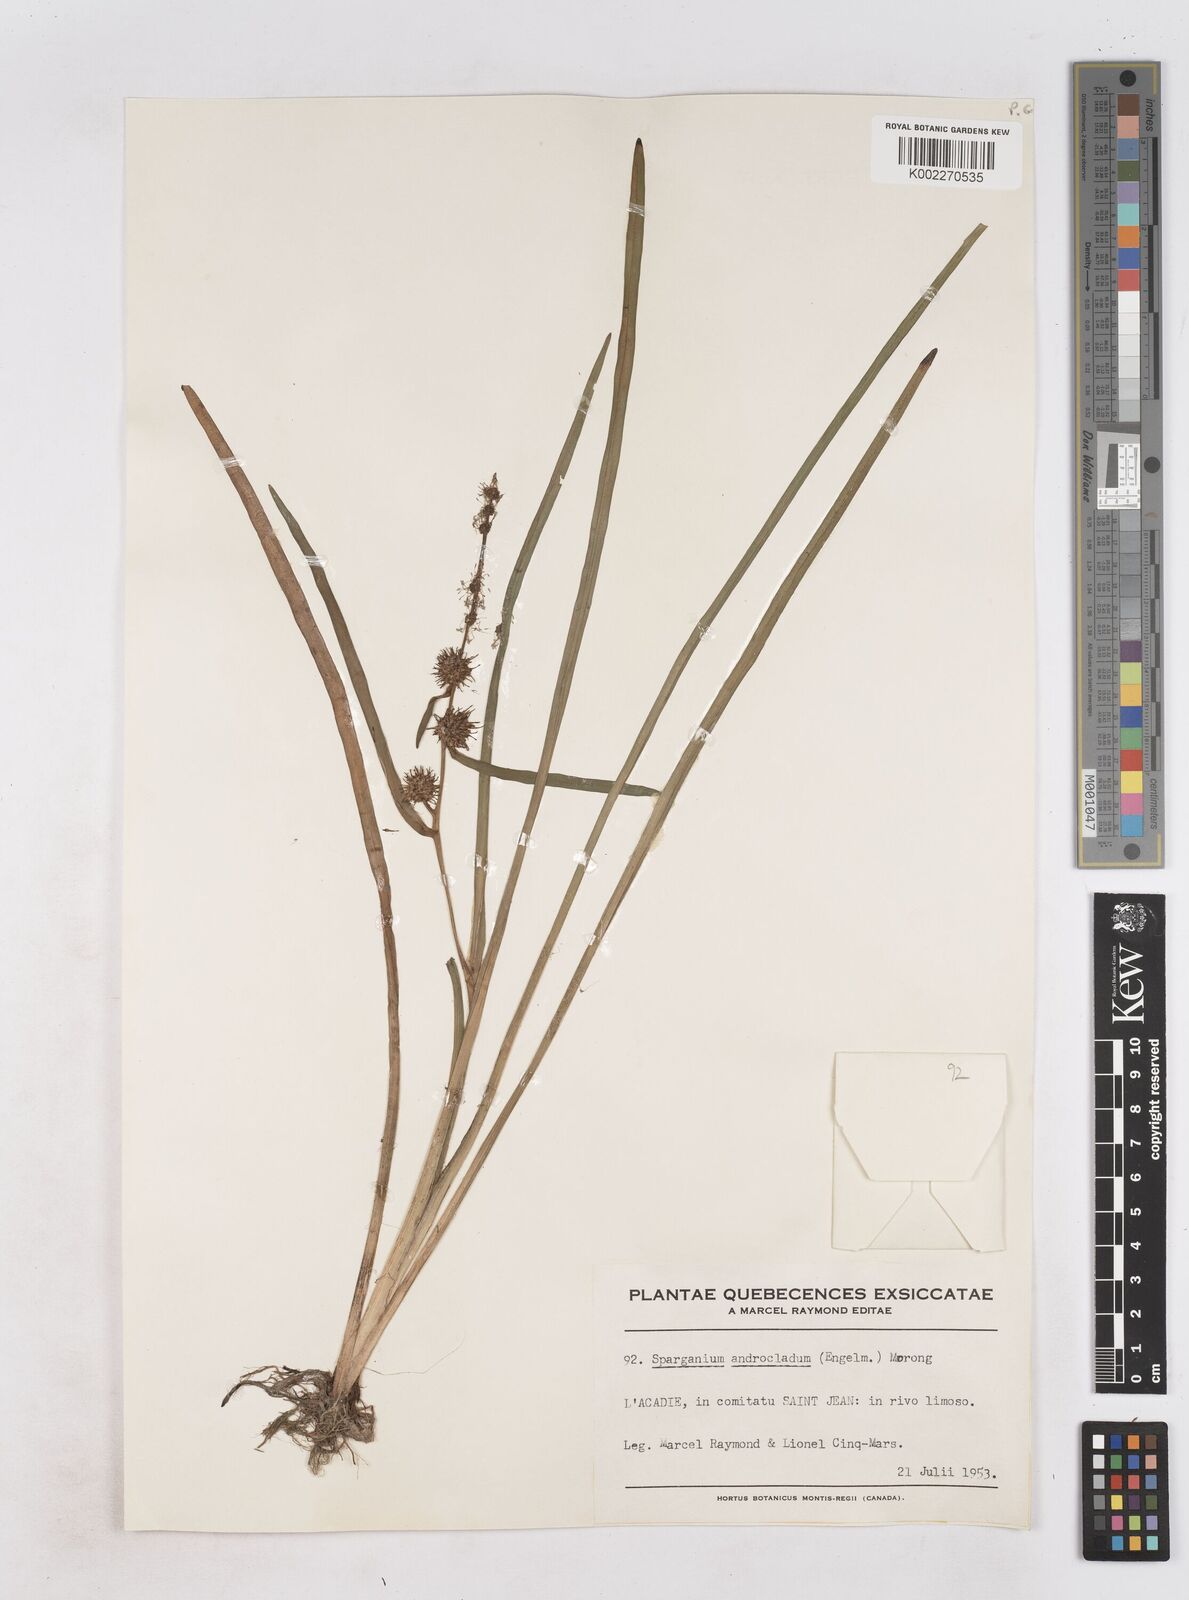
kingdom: Plantae
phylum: Tracheophyta
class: Liliopsida
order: Poales
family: Typhaceae
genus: Sparganium
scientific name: Sparganium androcladum
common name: Branched burreed
